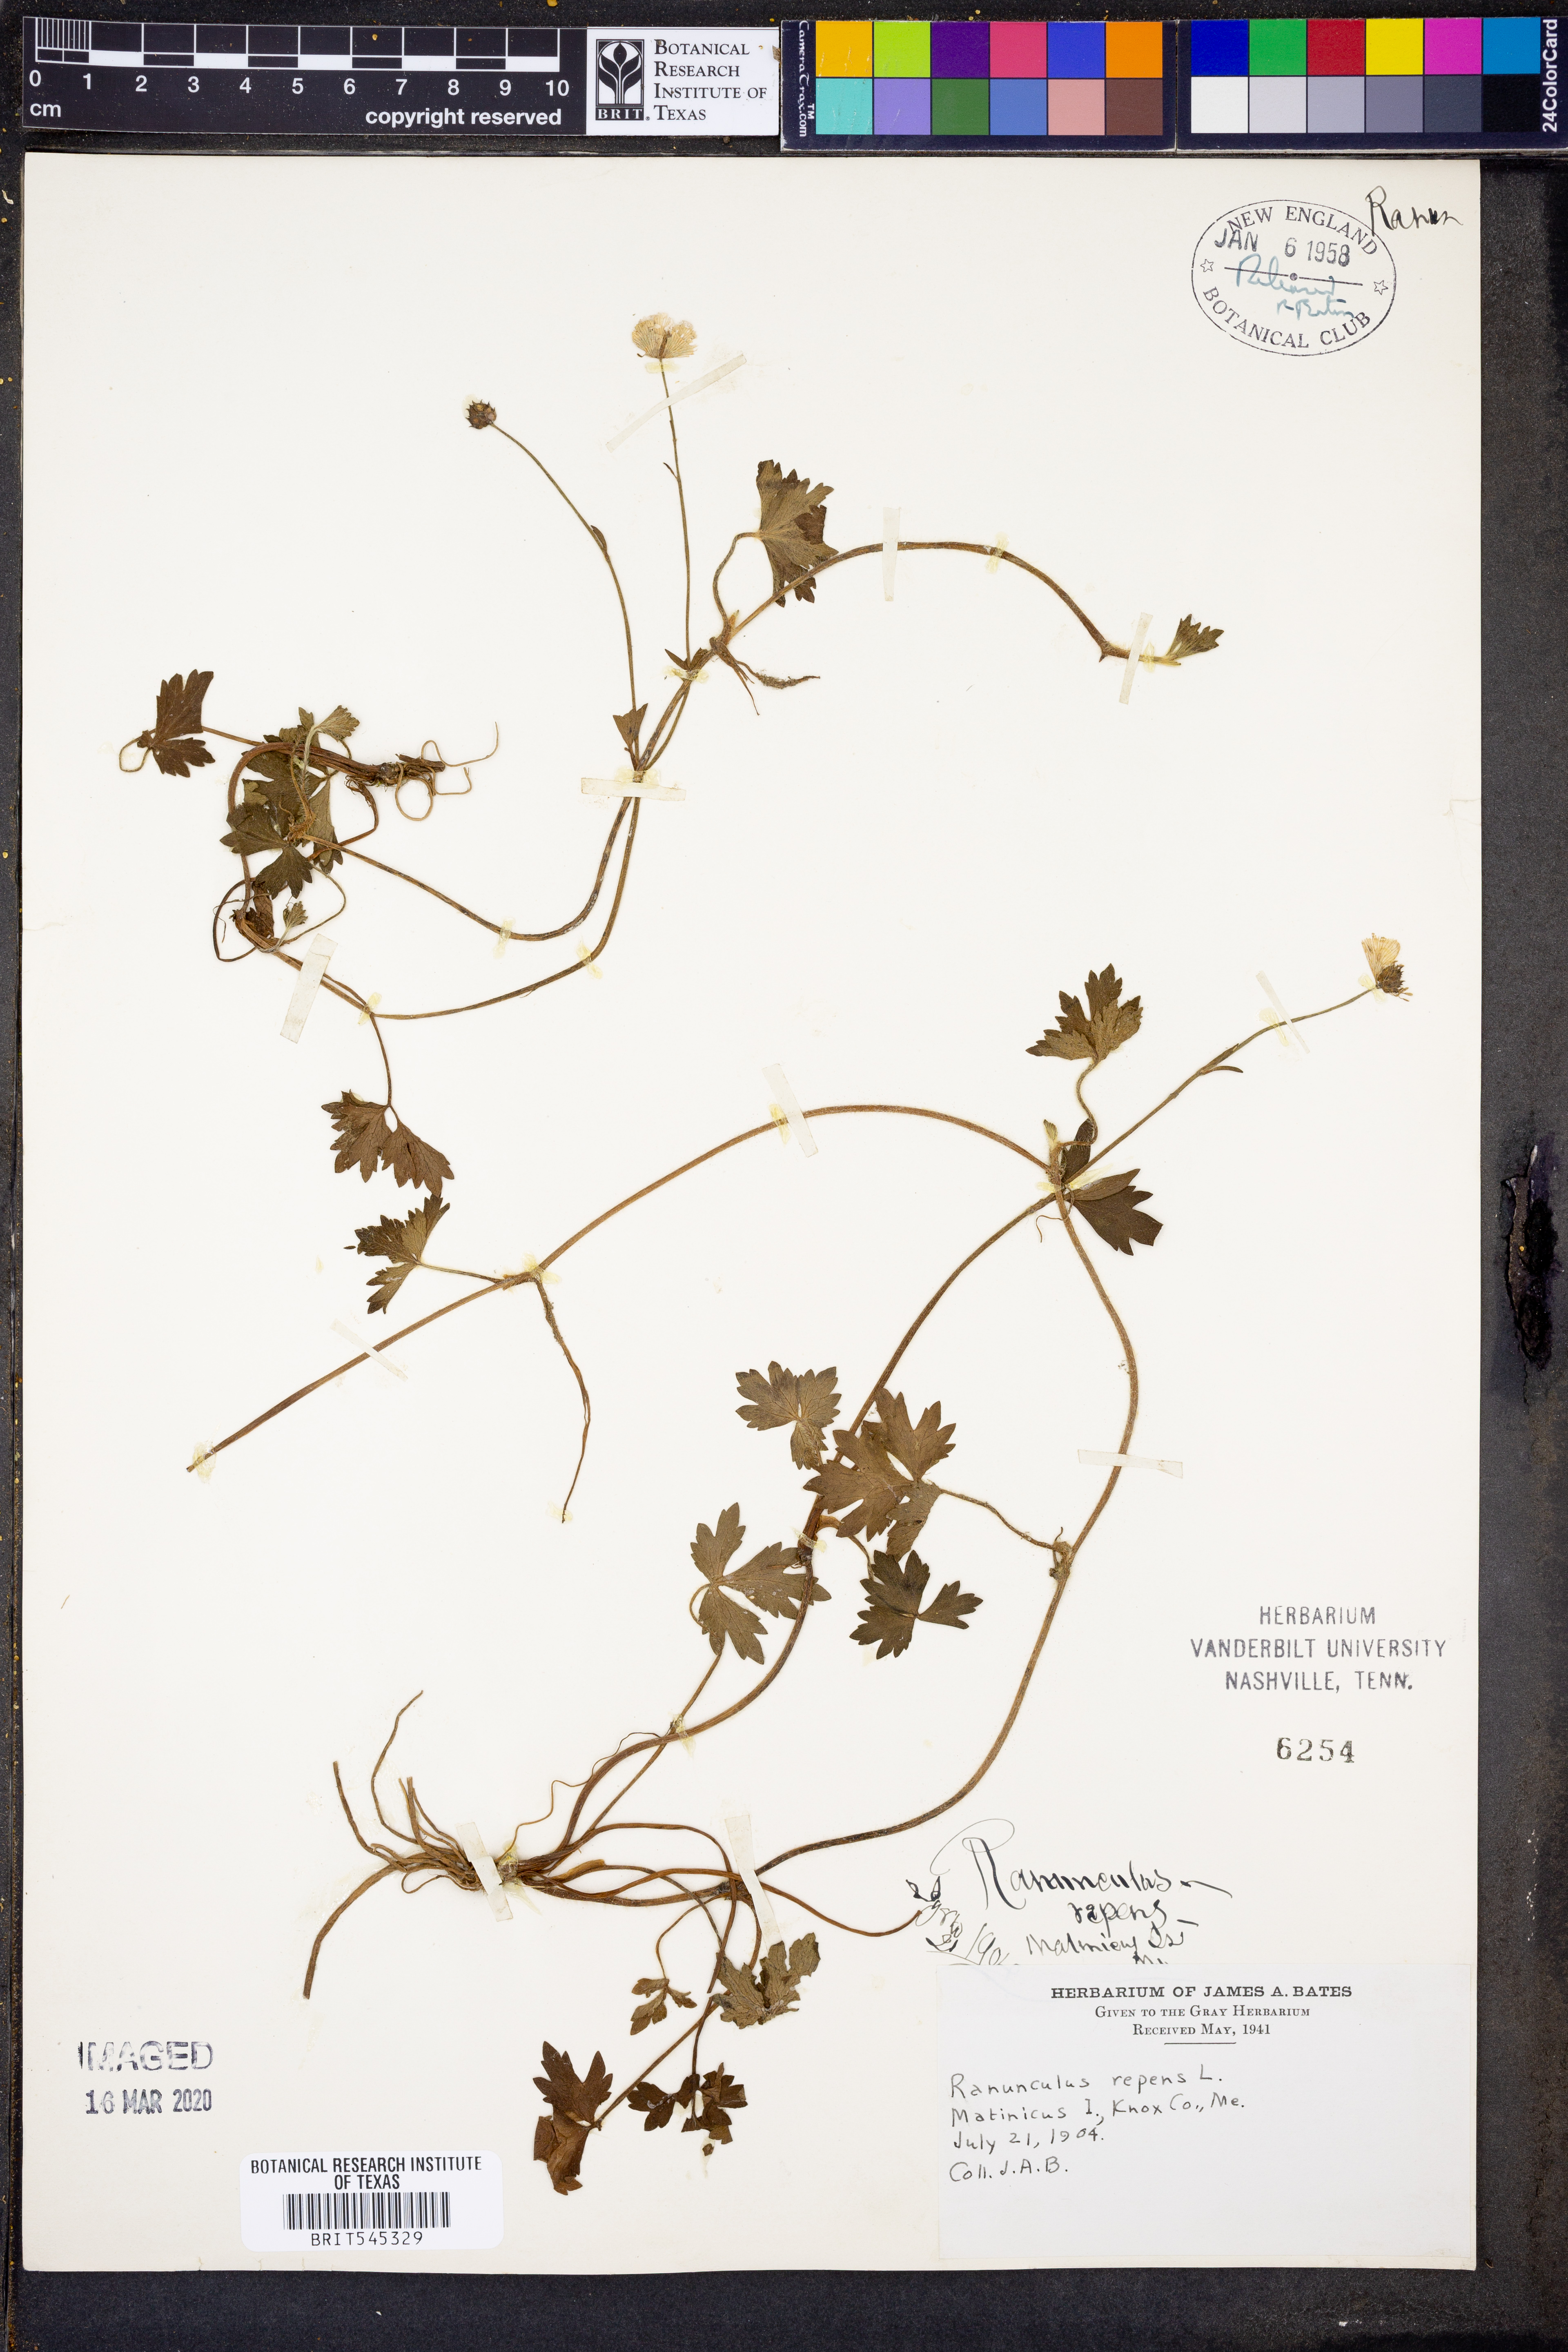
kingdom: Plantae
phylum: Tracheophyta
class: Magnoliopsida
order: Ranunculales
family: Ranunculaceae
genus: Ranunculus
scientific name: Ranunculus repens
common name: Creeping buttercup
